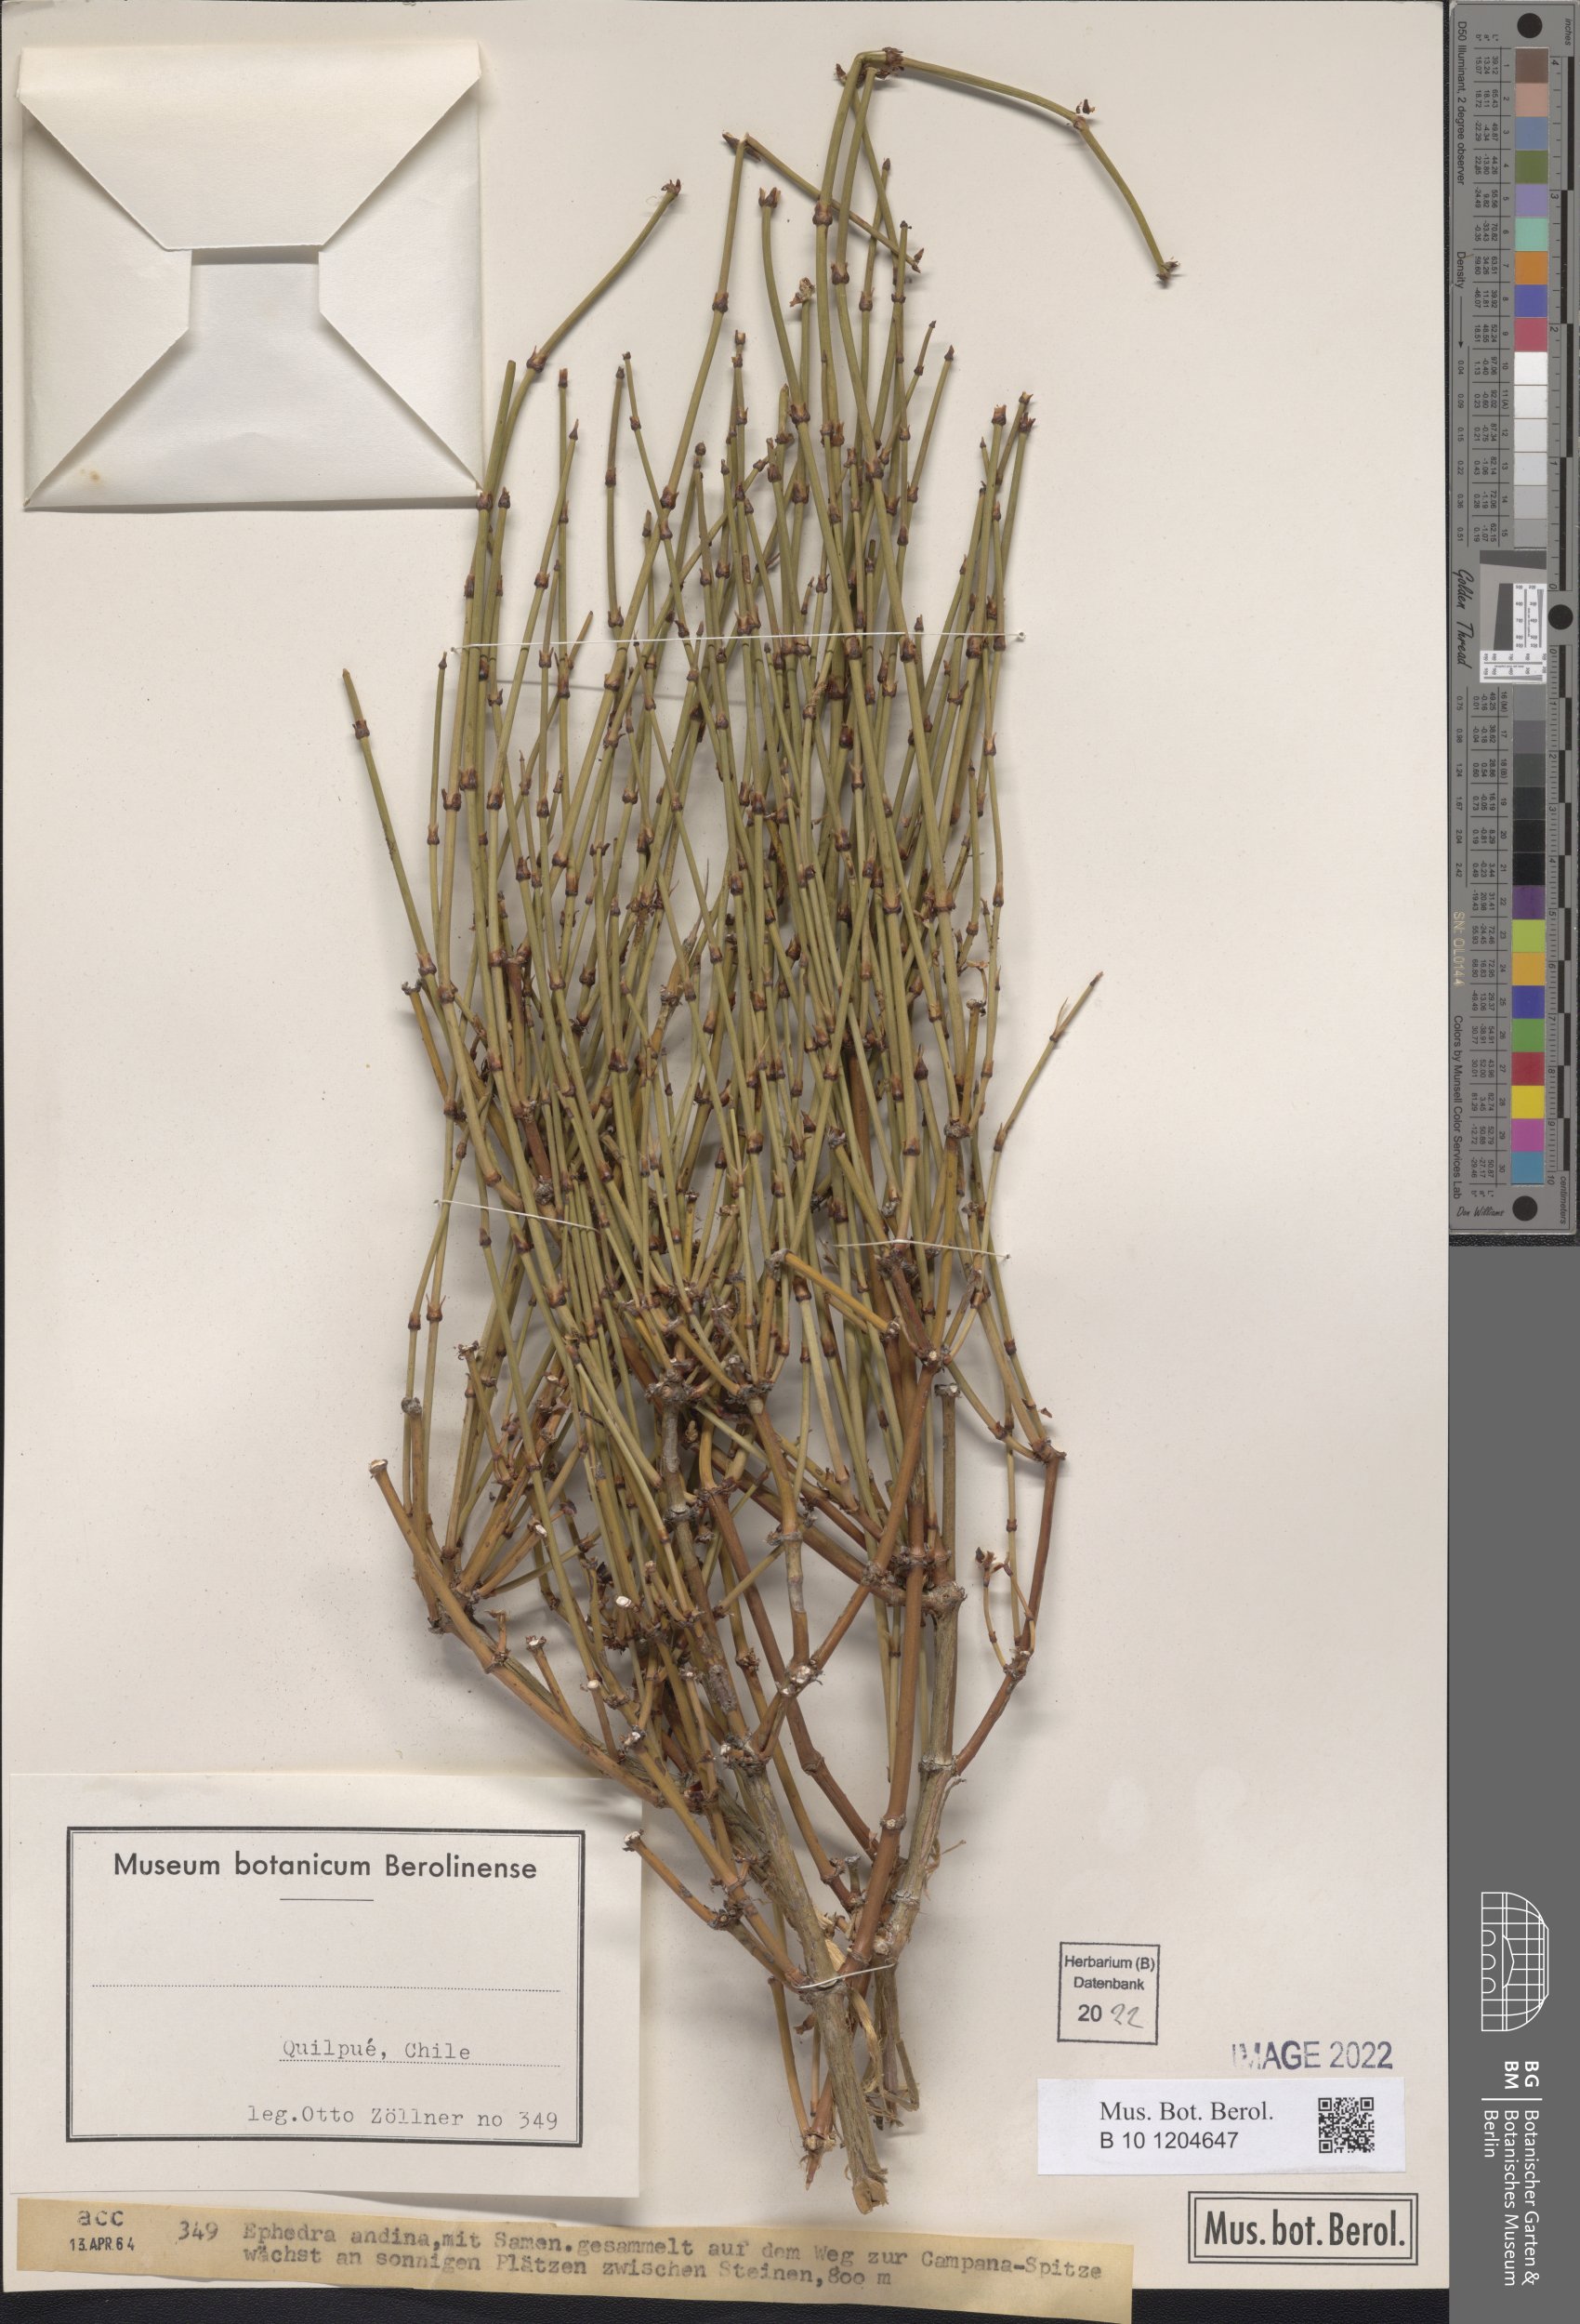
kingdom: Plantae
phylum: Tracheophyta
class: Gnetopsida
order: Ephedrales
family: Ephedraceae
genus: Ephedra
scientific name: Ephedra chilensis
